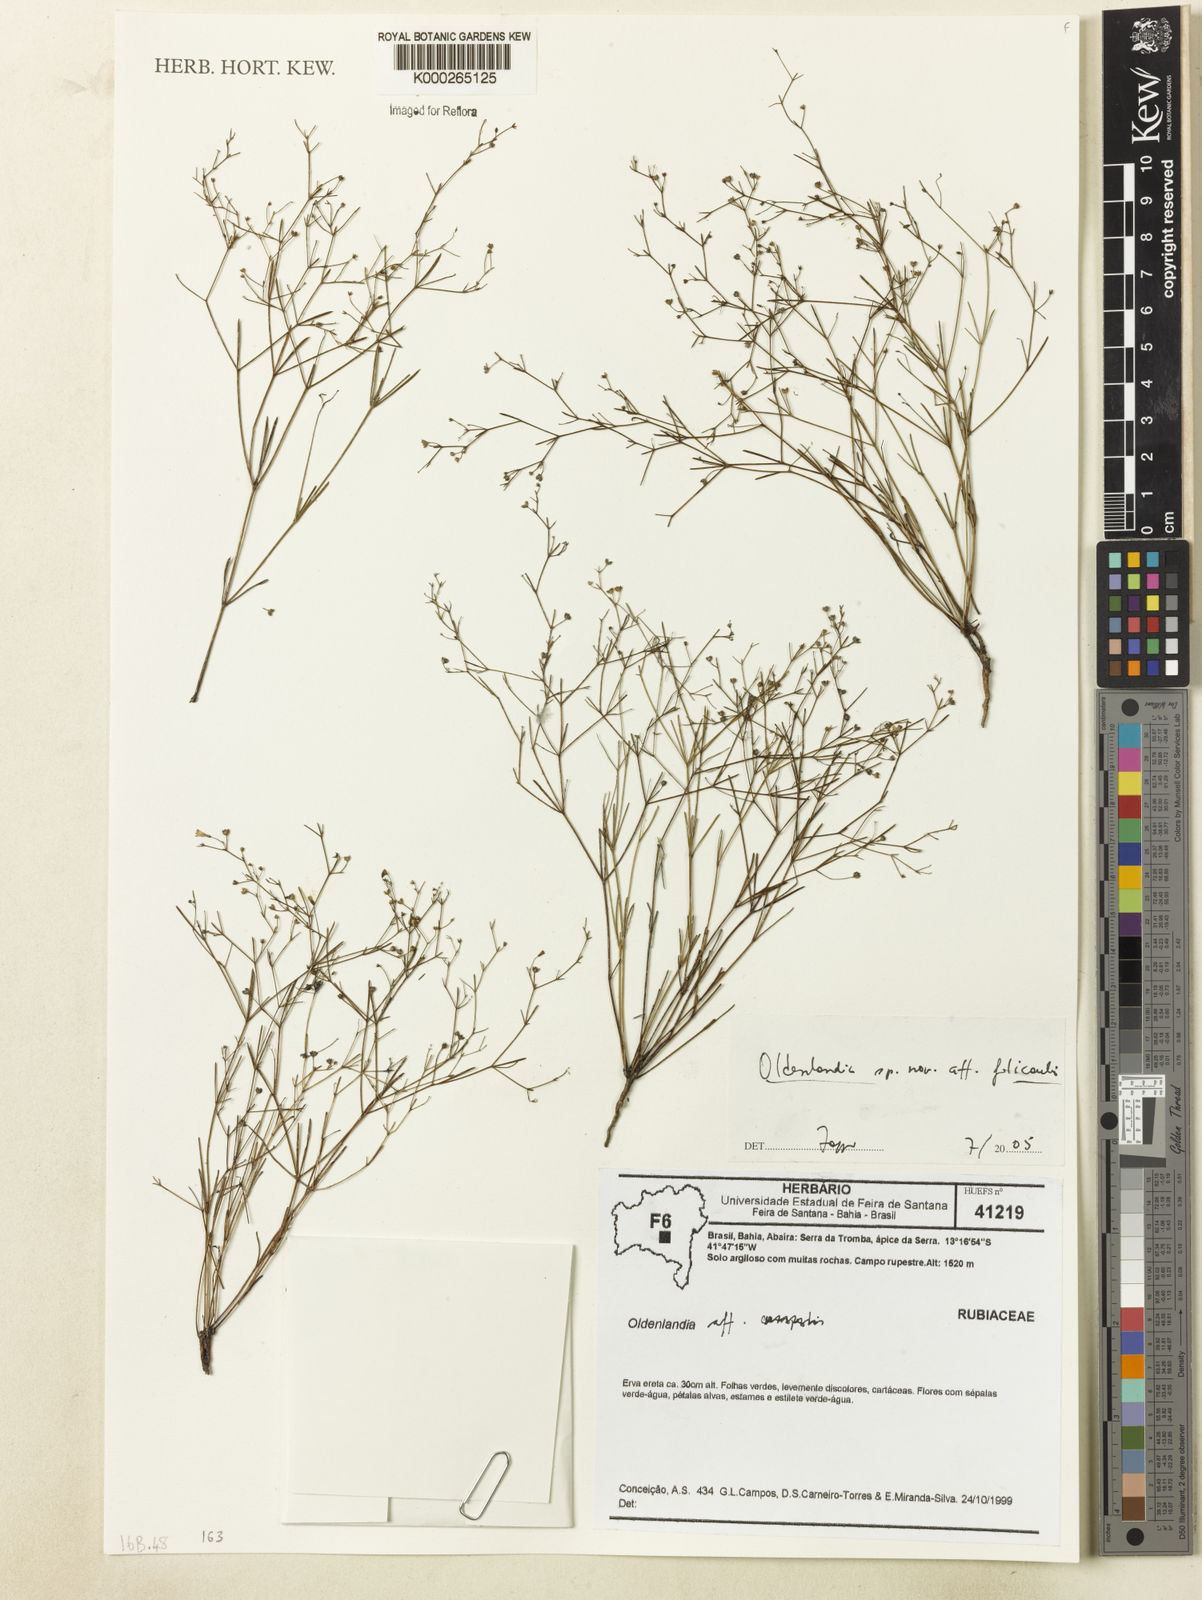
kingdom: Plantae
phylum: Tracheophyta
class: Magnoliopsida
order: Gentianales
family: Rubiaceae
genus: Oldenlandia
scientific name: Oldenlandia filicaulis
